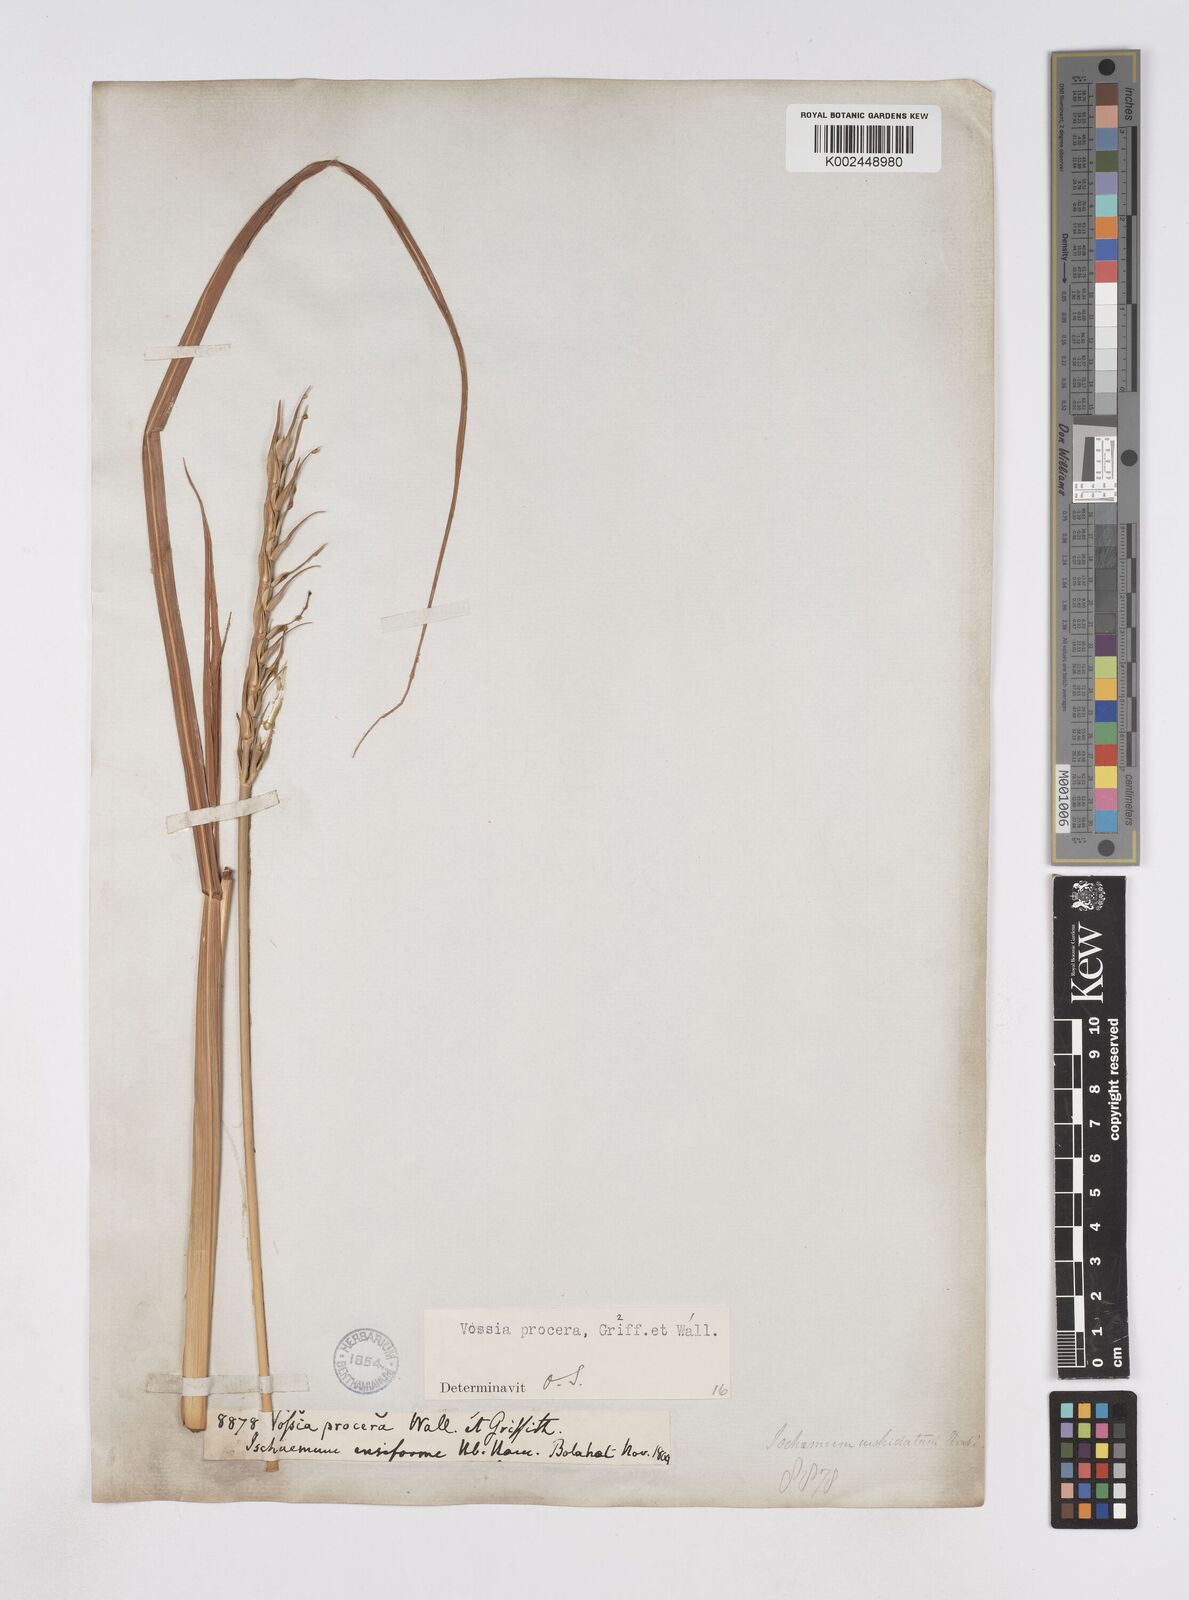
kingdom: Plantae
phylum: Tracheophyta
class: Liliopsida
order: Poales
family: Poaceae
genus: Vossia
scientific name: Vossia cuspidata
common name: Hippo grass
